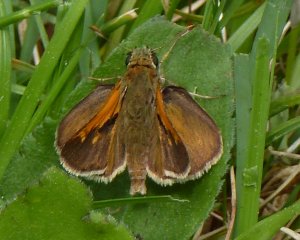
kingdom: Animalia
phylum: Arthropoda
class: Insecta
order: Lepidoptera
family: Hesperiidae
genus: Polites
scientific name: Polites themistocles
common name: Tawny-edged Skipper
